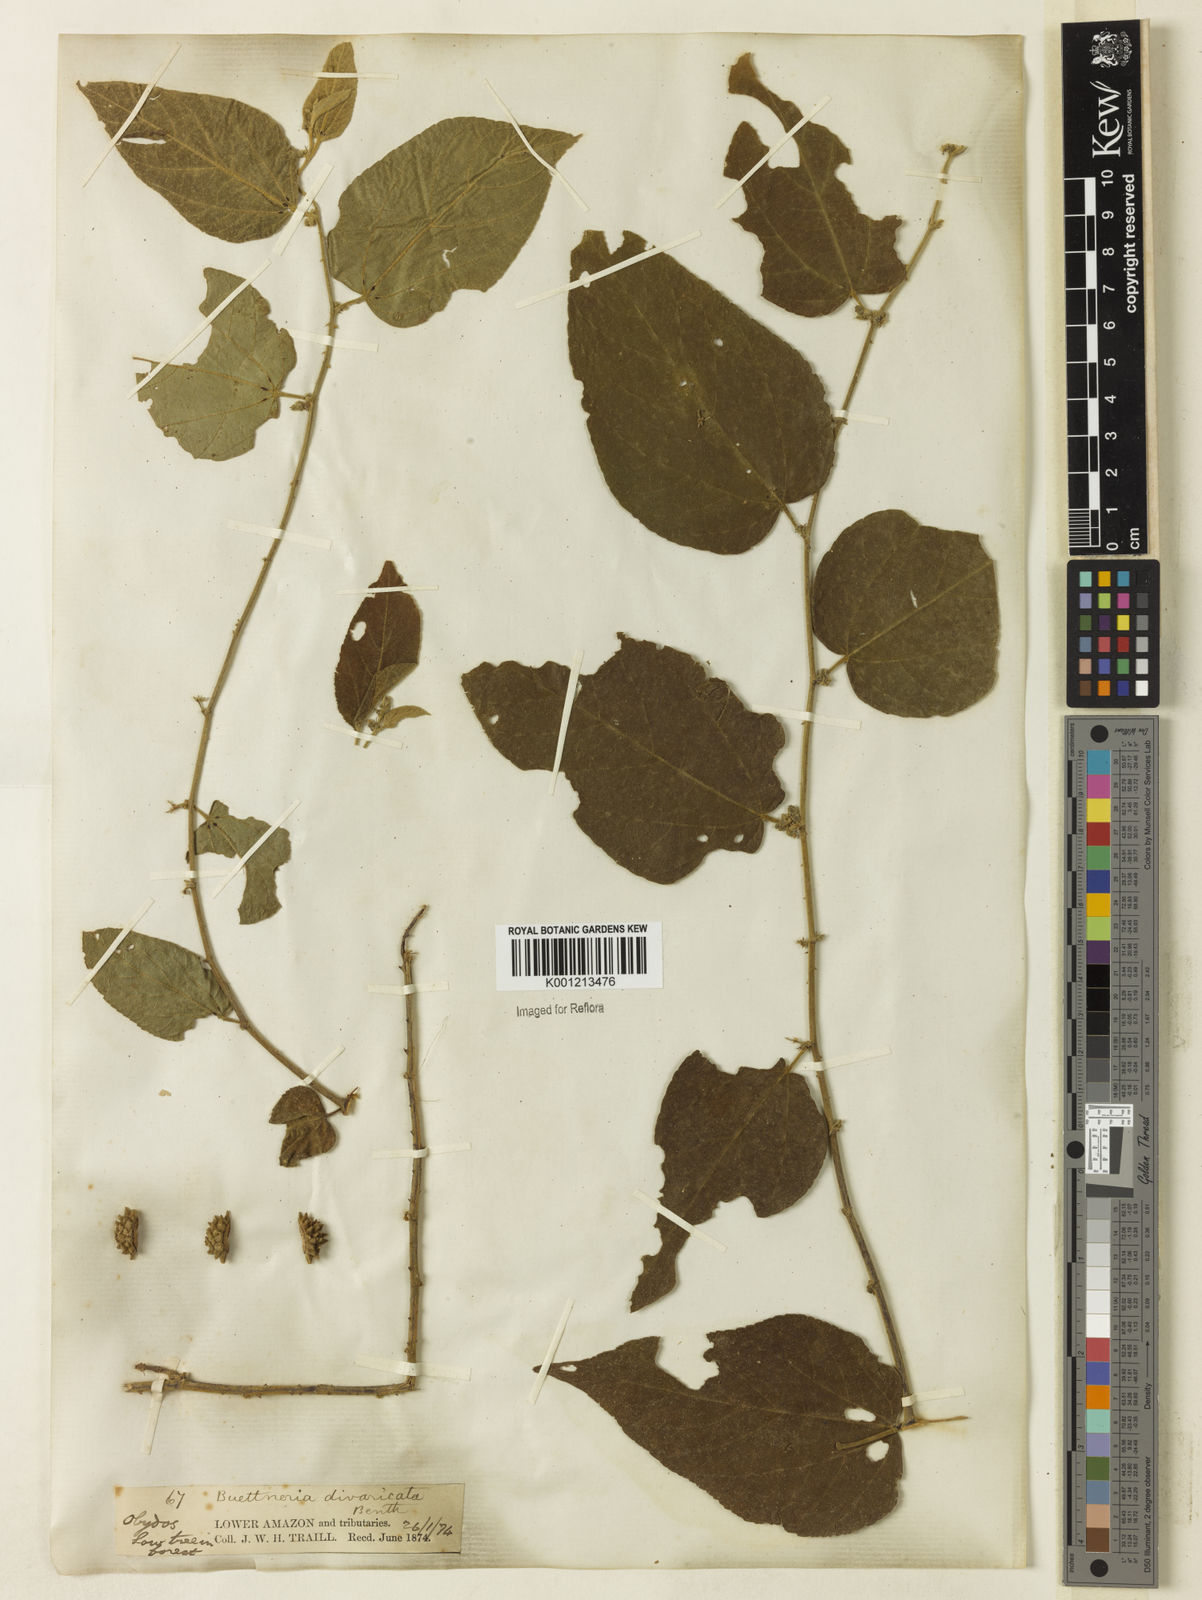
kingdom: Plantae
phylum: Tracheophyta
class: Magnoliopsida
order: Malvales
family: Malvaceae
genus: Byttneria
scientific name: Byttneria divaricata
